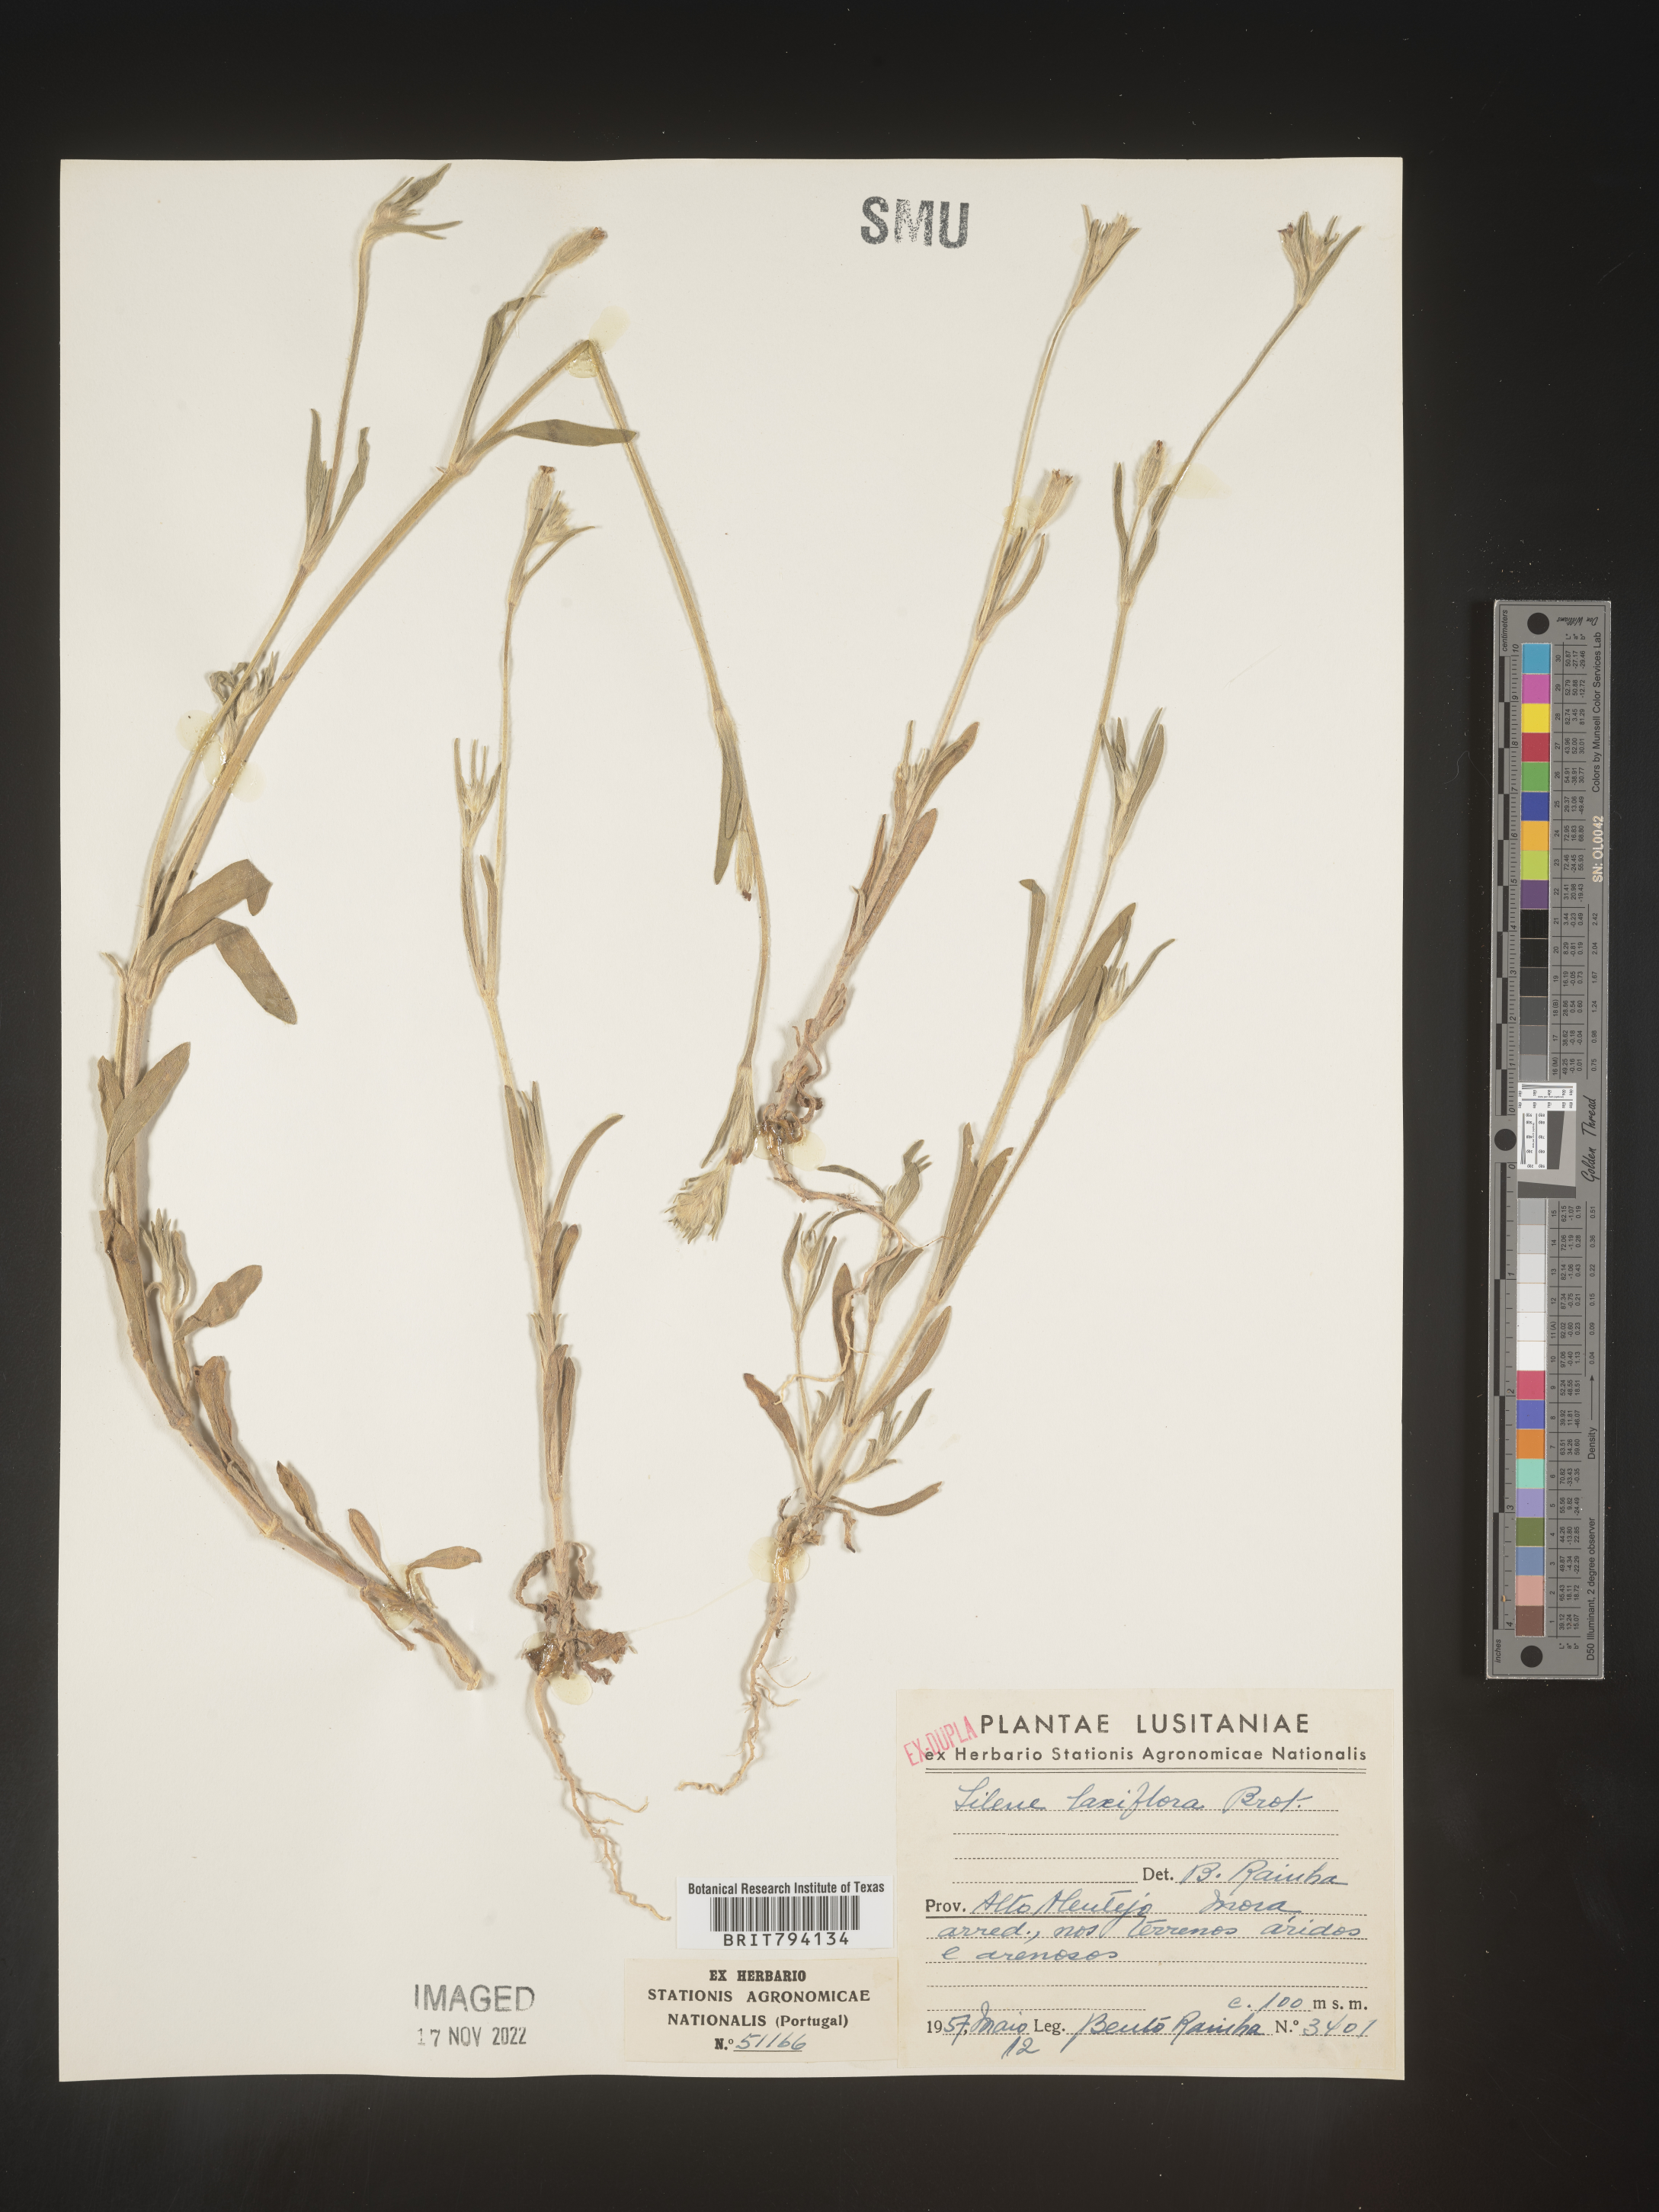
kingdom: Plantae
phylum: Tracheophyta
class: Magnoliopsida
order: Caryophyllales
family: Caryophyllaceae
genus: Silene
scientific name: Silene scabriflora
